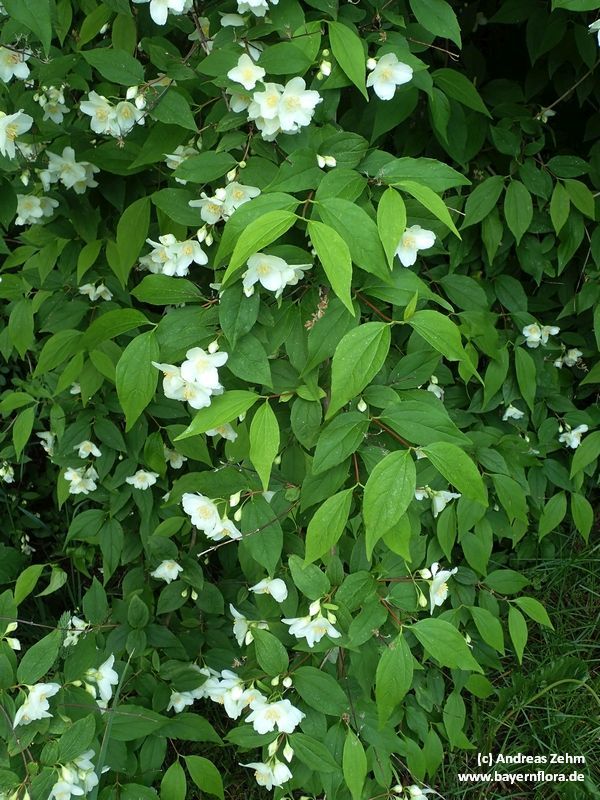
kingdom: Plantae
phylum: Tracheophyta
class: Magnoliopsida
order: Cornales
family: Hydrangeaceae
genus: Philadelphus
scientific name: Philadelphus coronarius
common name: Mock orange
